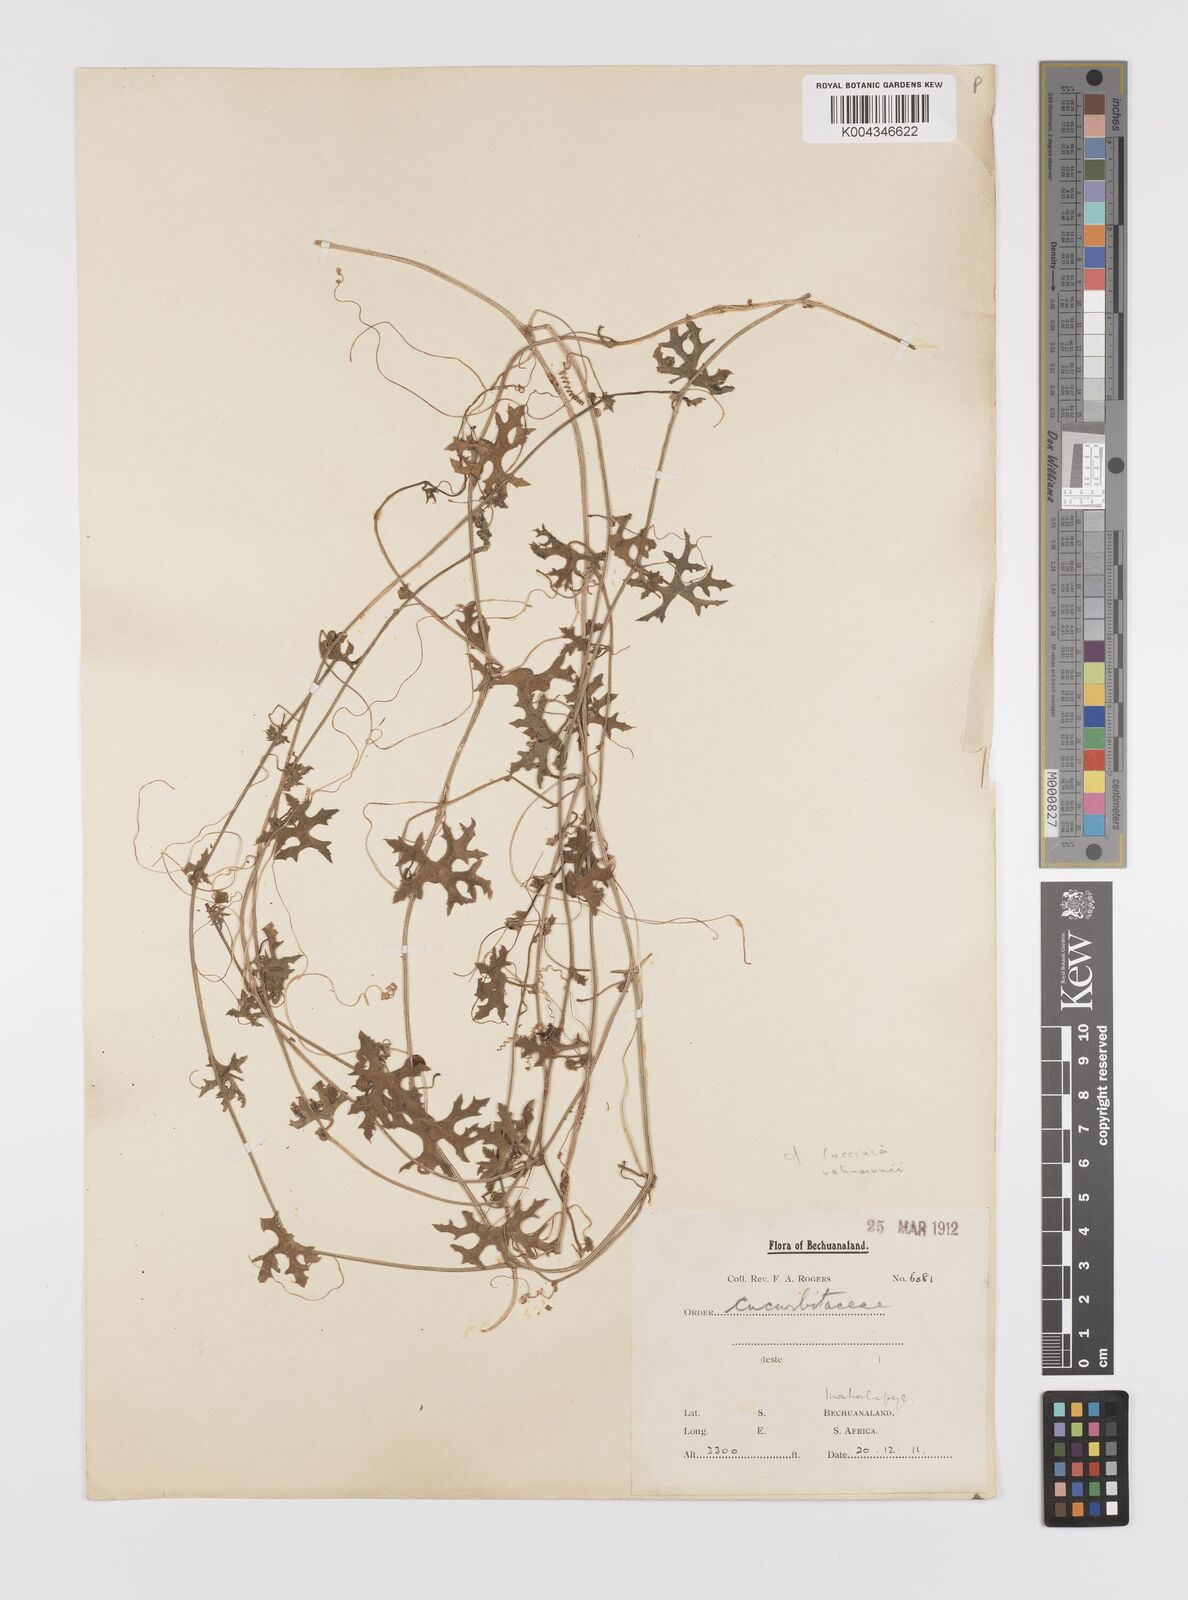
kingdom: Plantae
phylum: Tracheophyta
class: Magnoliopsida
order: Cucurbitales
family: Cucurbitaceae
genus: Coccinia
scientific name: Coccinia rehmannii
